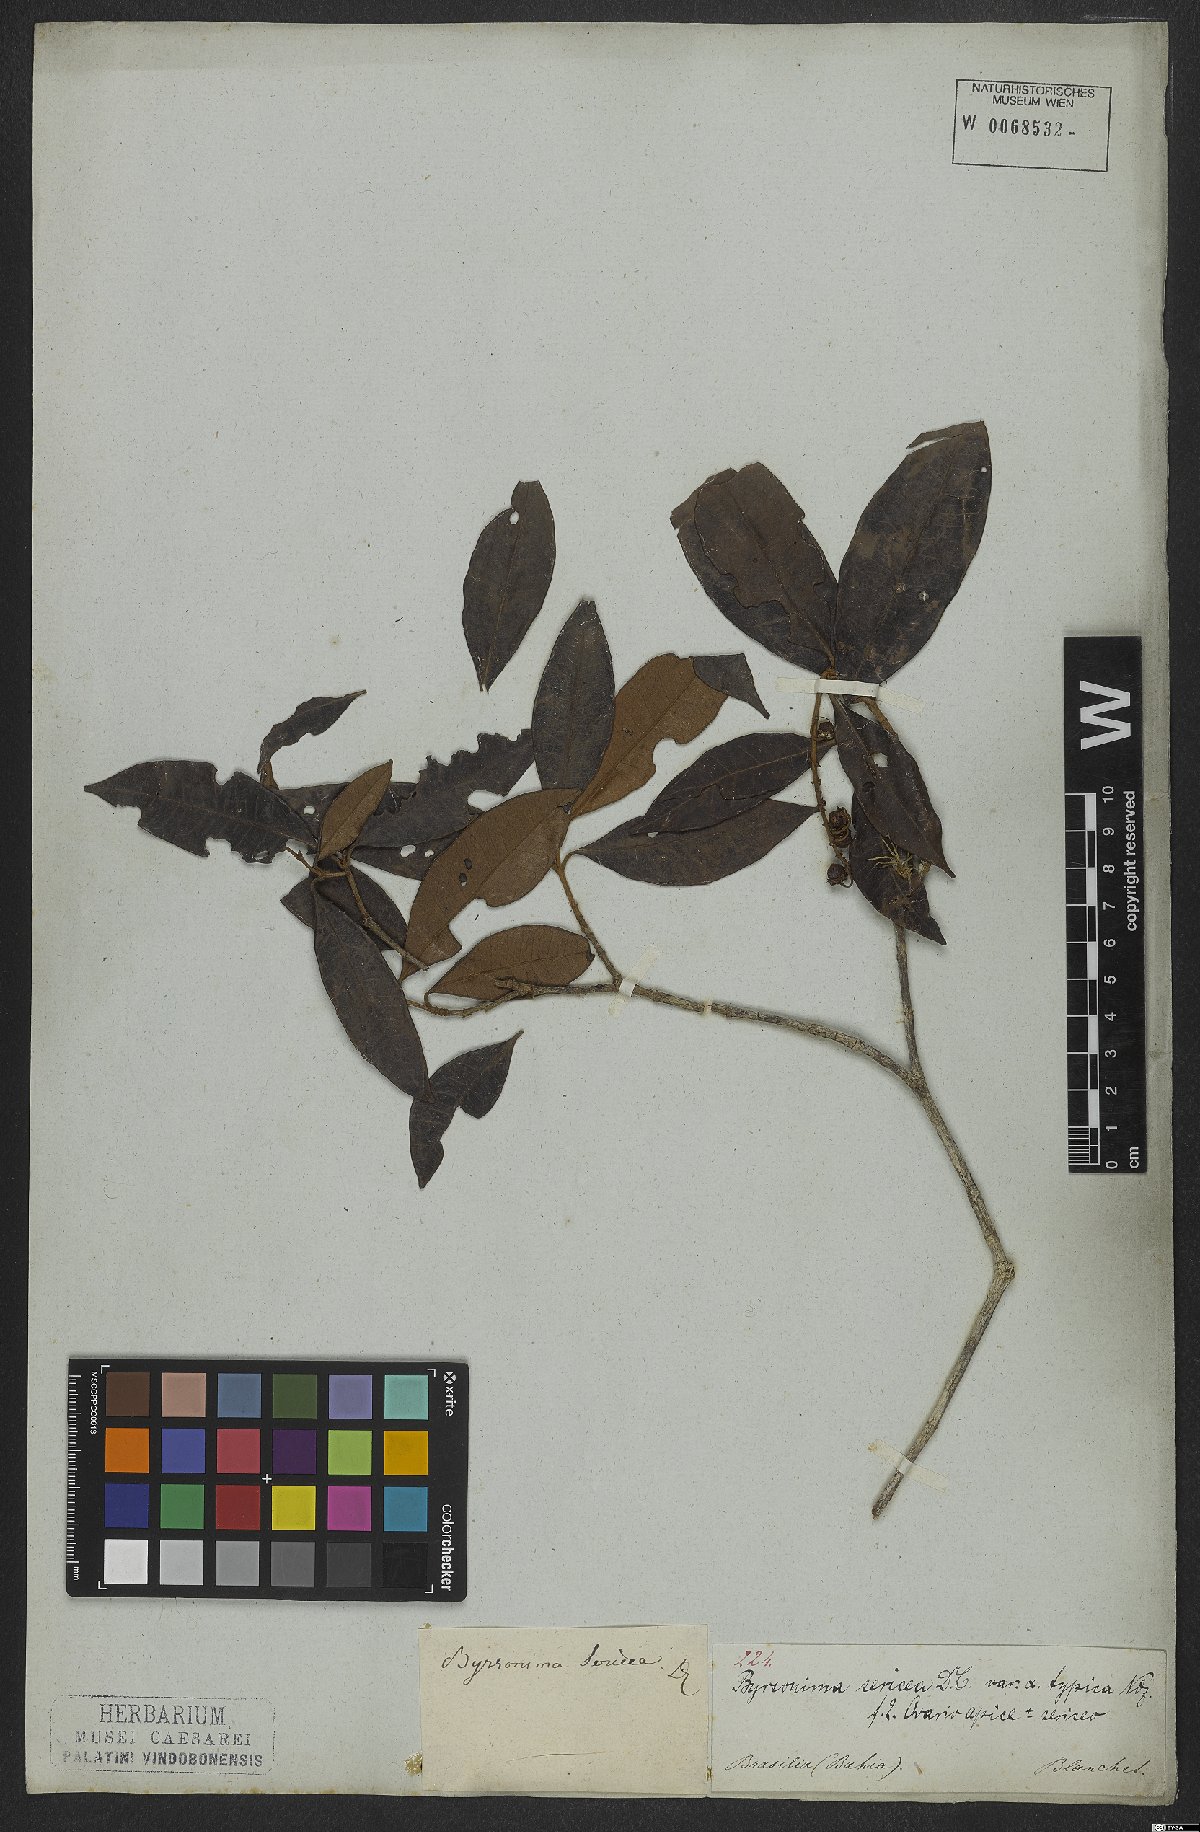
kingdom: Plantae
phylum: Tracheophyta
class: Magnoliopsida
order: Malpighiales
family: Malpighiaceae
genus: Byrsonima
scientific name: Byrsonima sericea
